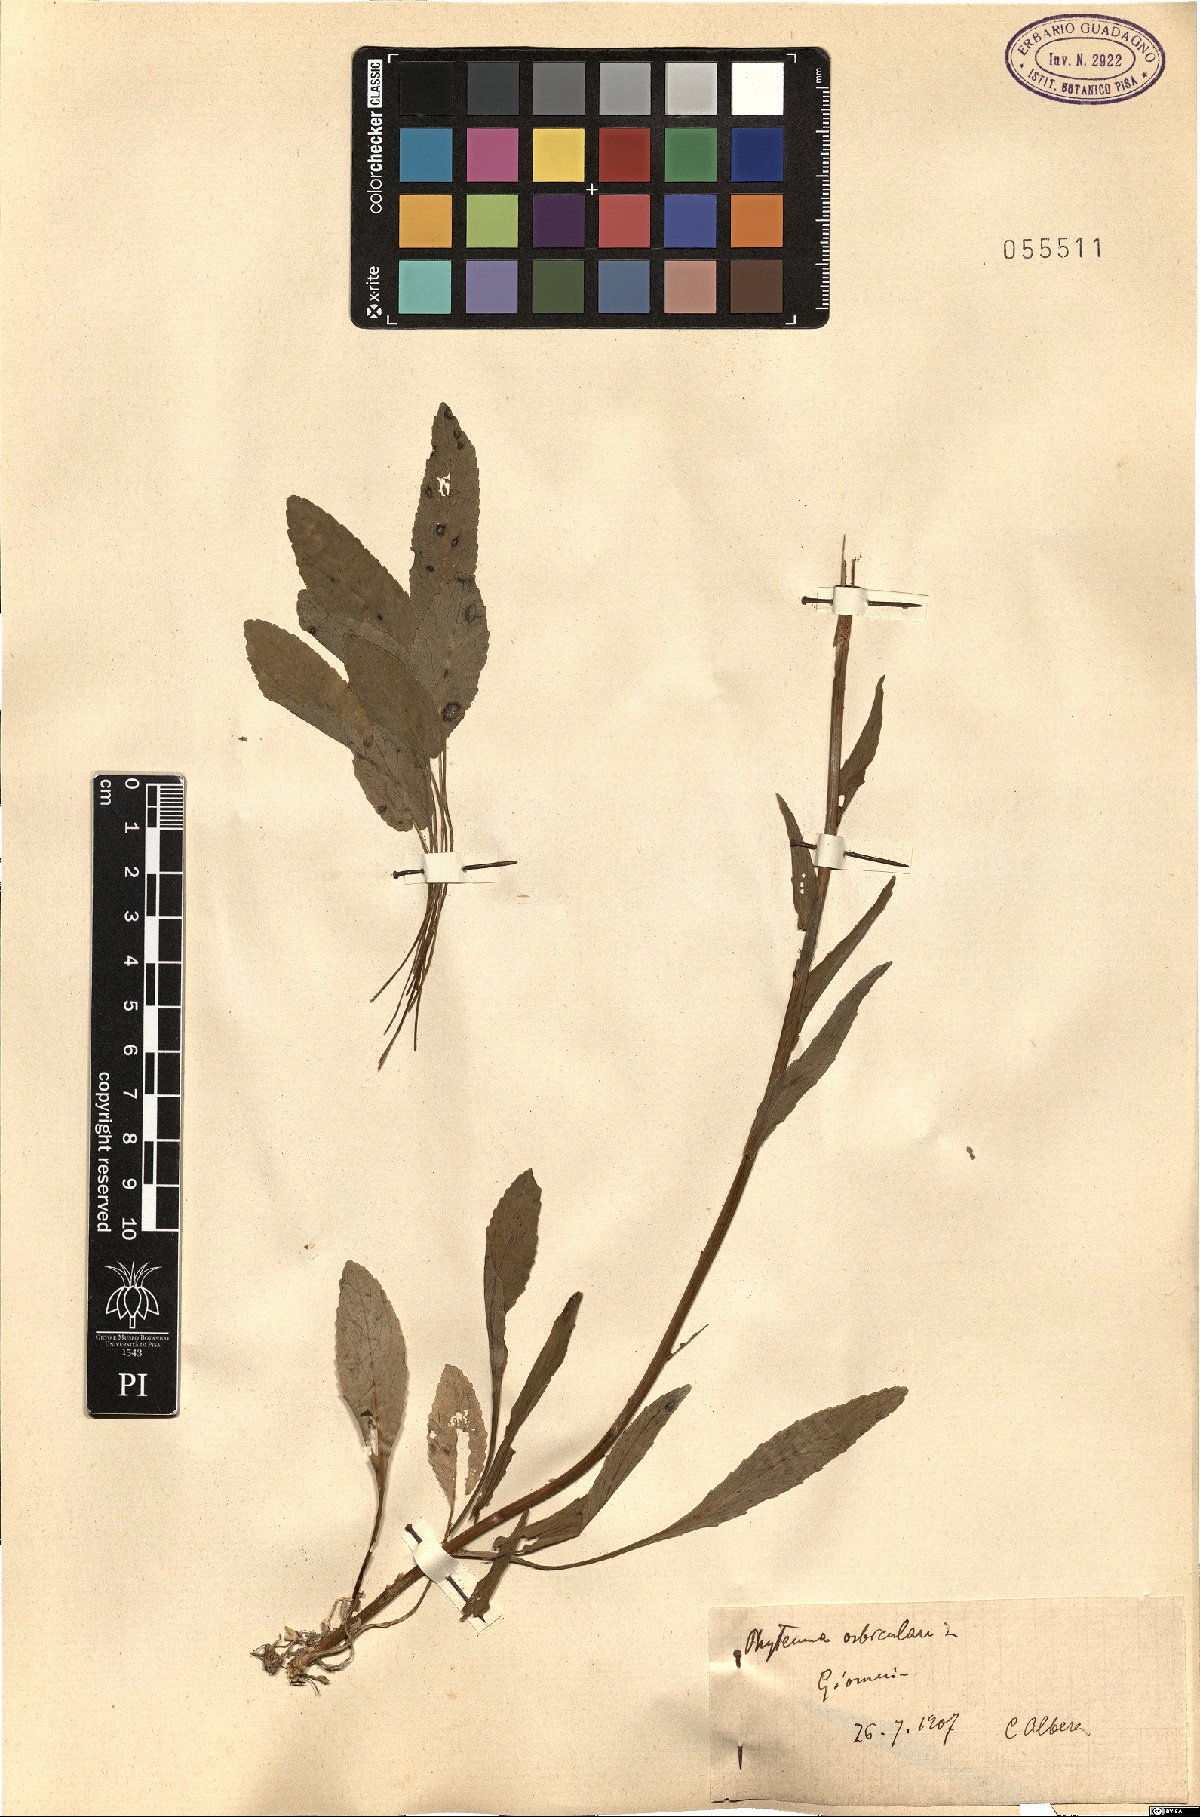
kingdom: Plantae
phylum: Tracheophyta
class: Magnoliopsida
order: Asterales
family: Campanulaceae
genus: Phyteuma
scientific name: Phyteuma orbiculare
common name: Round-headed rampion
